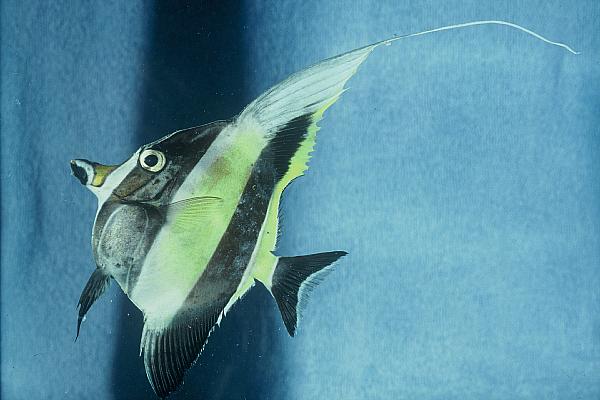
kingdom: Animalia
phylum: Chordata
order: Perciformes
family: Zanclidae
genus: Zanclus
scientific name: Zanclus cornutus
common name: Moorish idol
